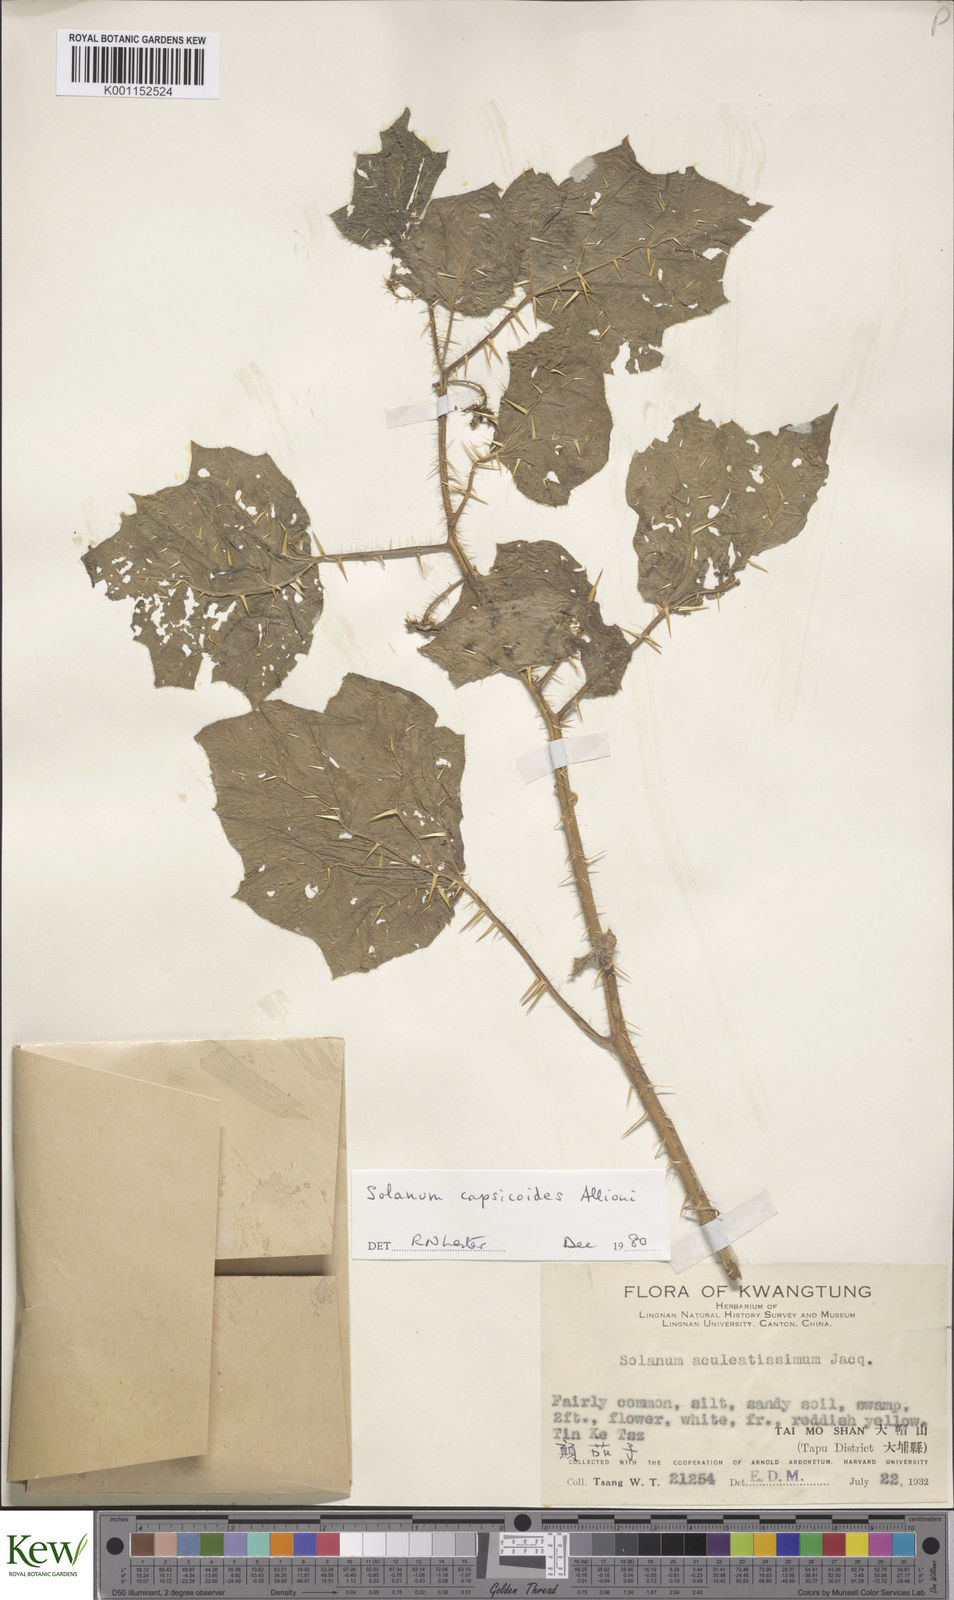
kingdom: Plantae
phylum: Tracheophyta
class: Magnoliopsida
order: Solanales
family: Solanaceae
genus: Solanum
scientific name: Solanum capsicoides
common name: Cockroach berry
